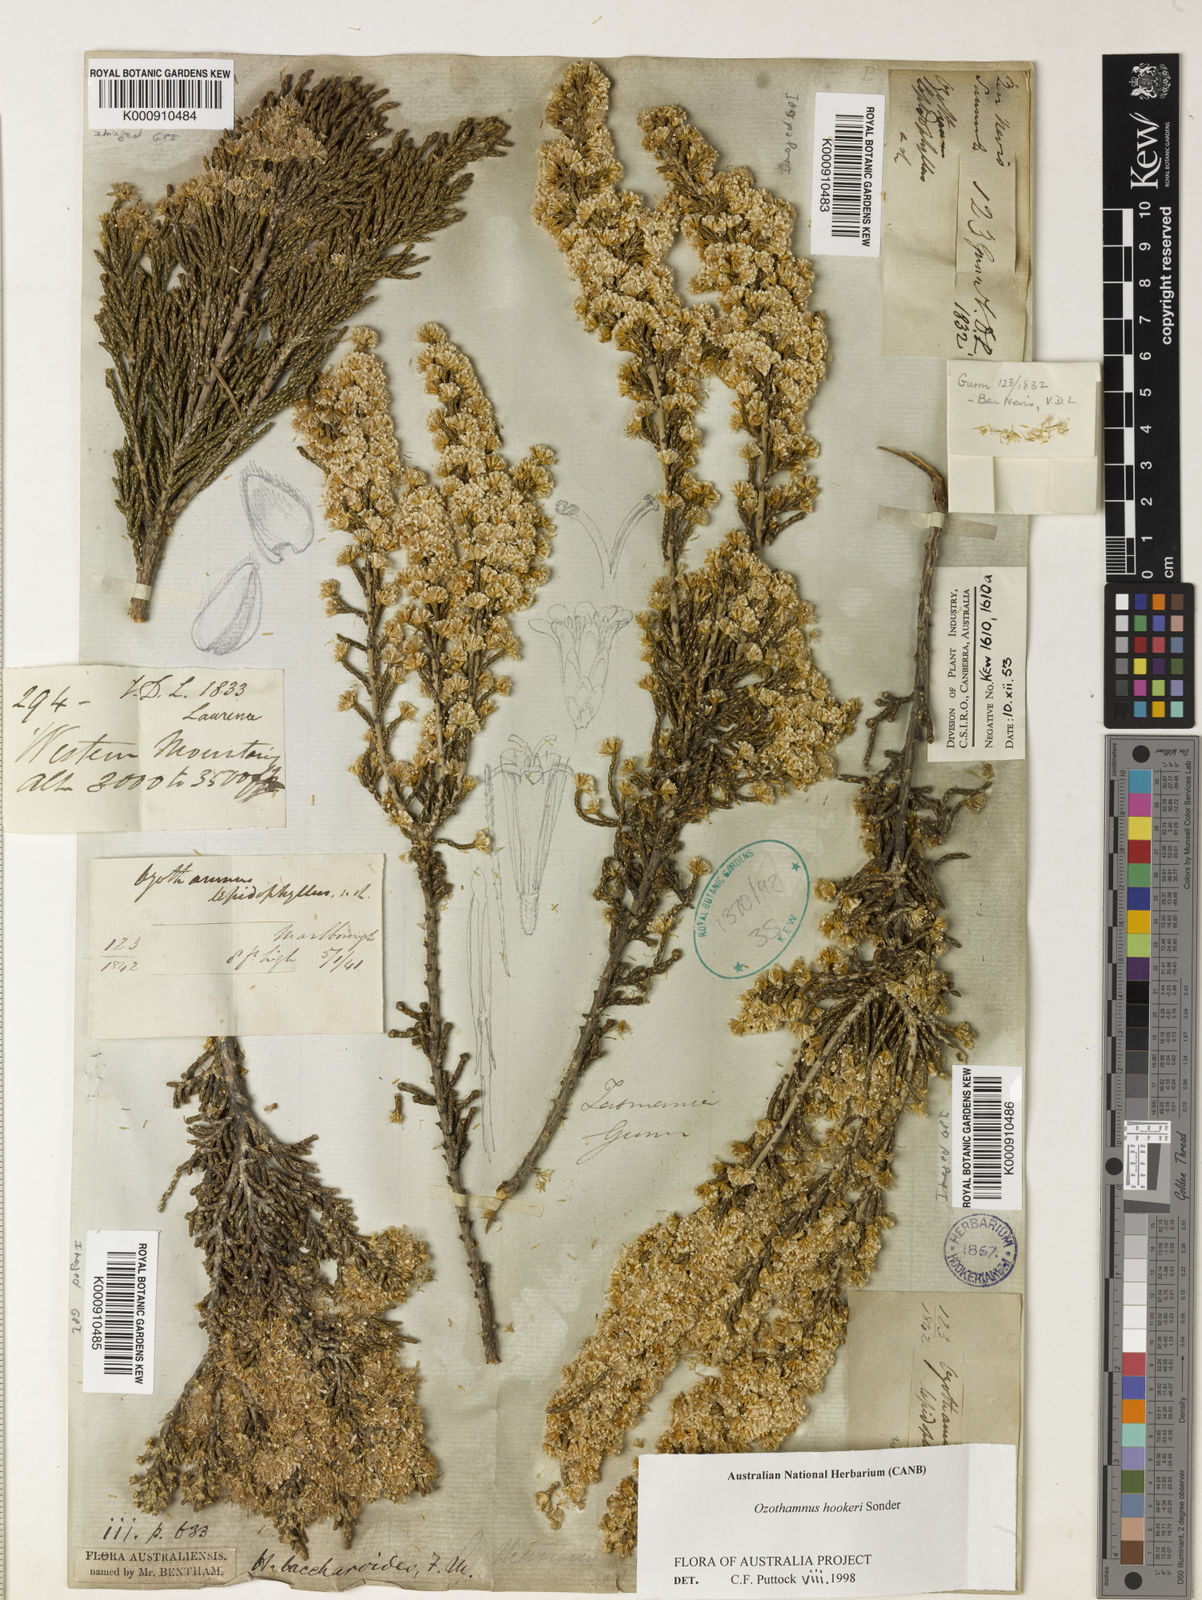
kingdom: Plantae
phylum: Tracheophyta
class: Magnoliopsida
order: Asterales
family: Asteraceae
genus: Ozothamnus
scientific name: Ozothamnus hookeri
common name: Kerosene-bush
